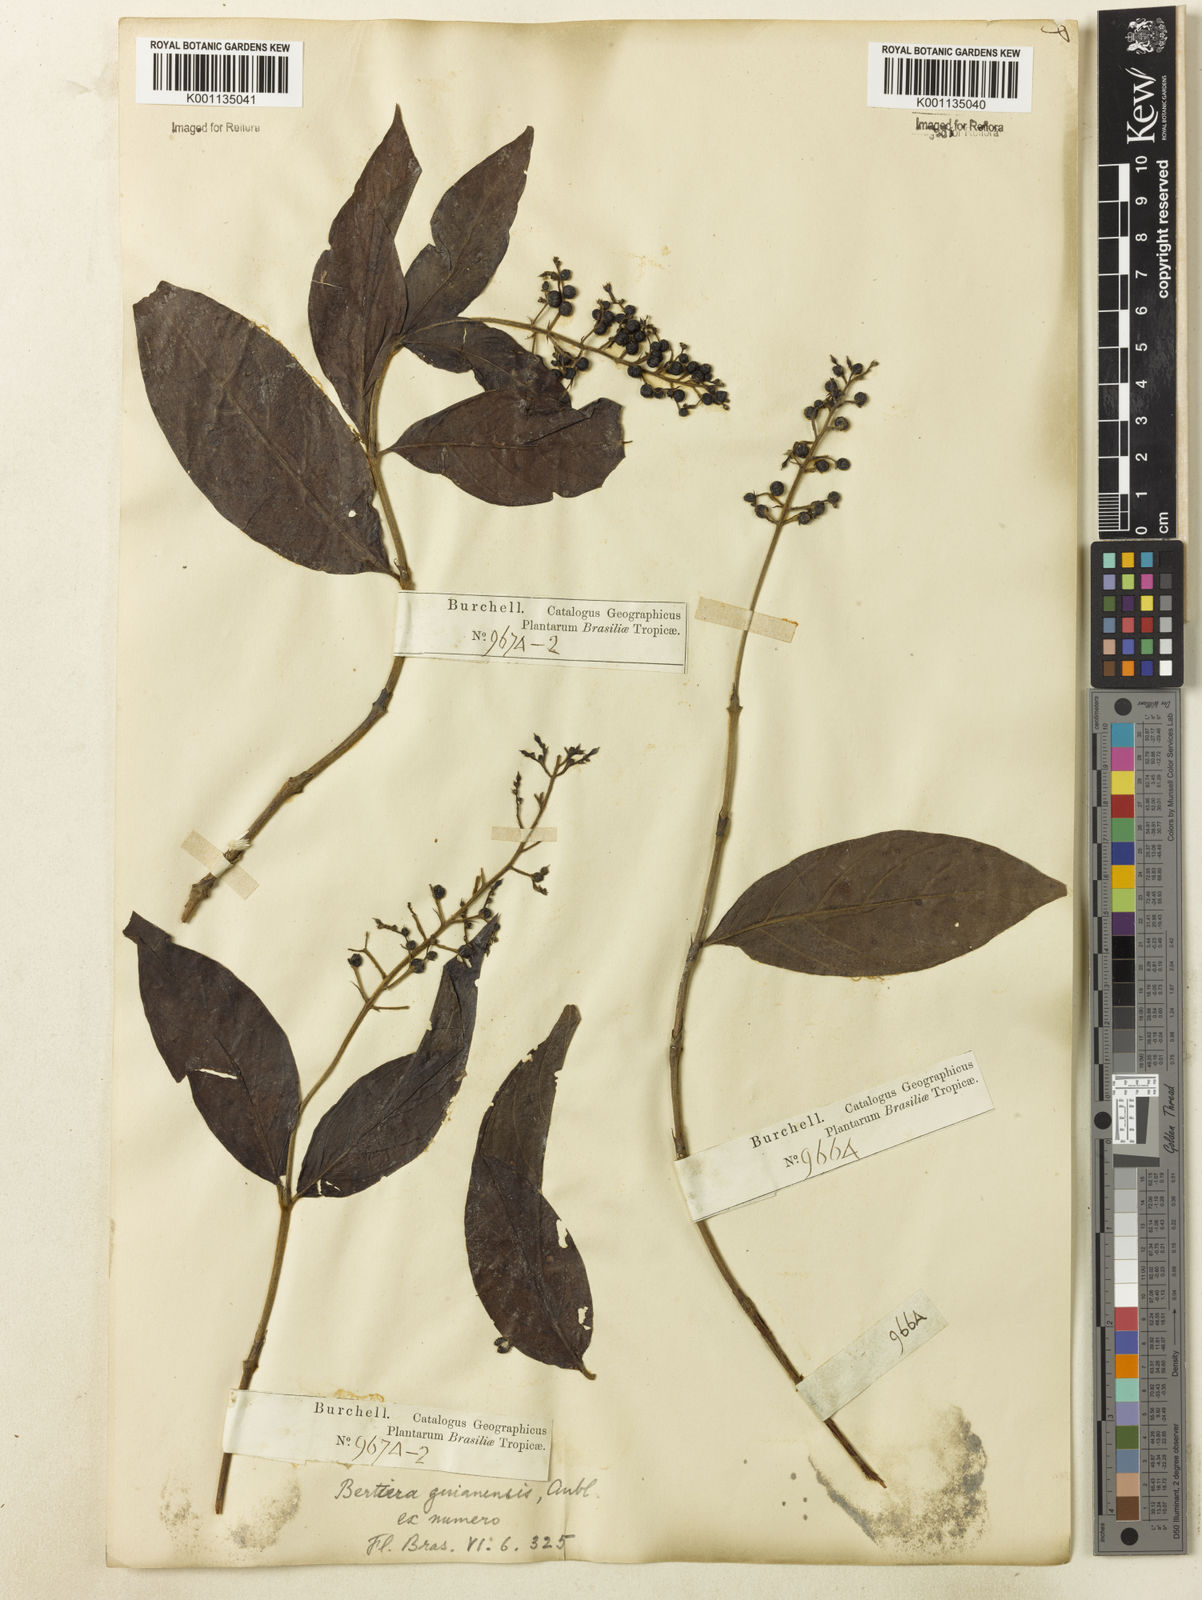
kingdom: Plantae
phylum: Tracheophyta
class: Magnoliopsida
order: Gentianales
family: Rubiaceae
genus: Bertiera
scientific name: Bertiera guianensis
